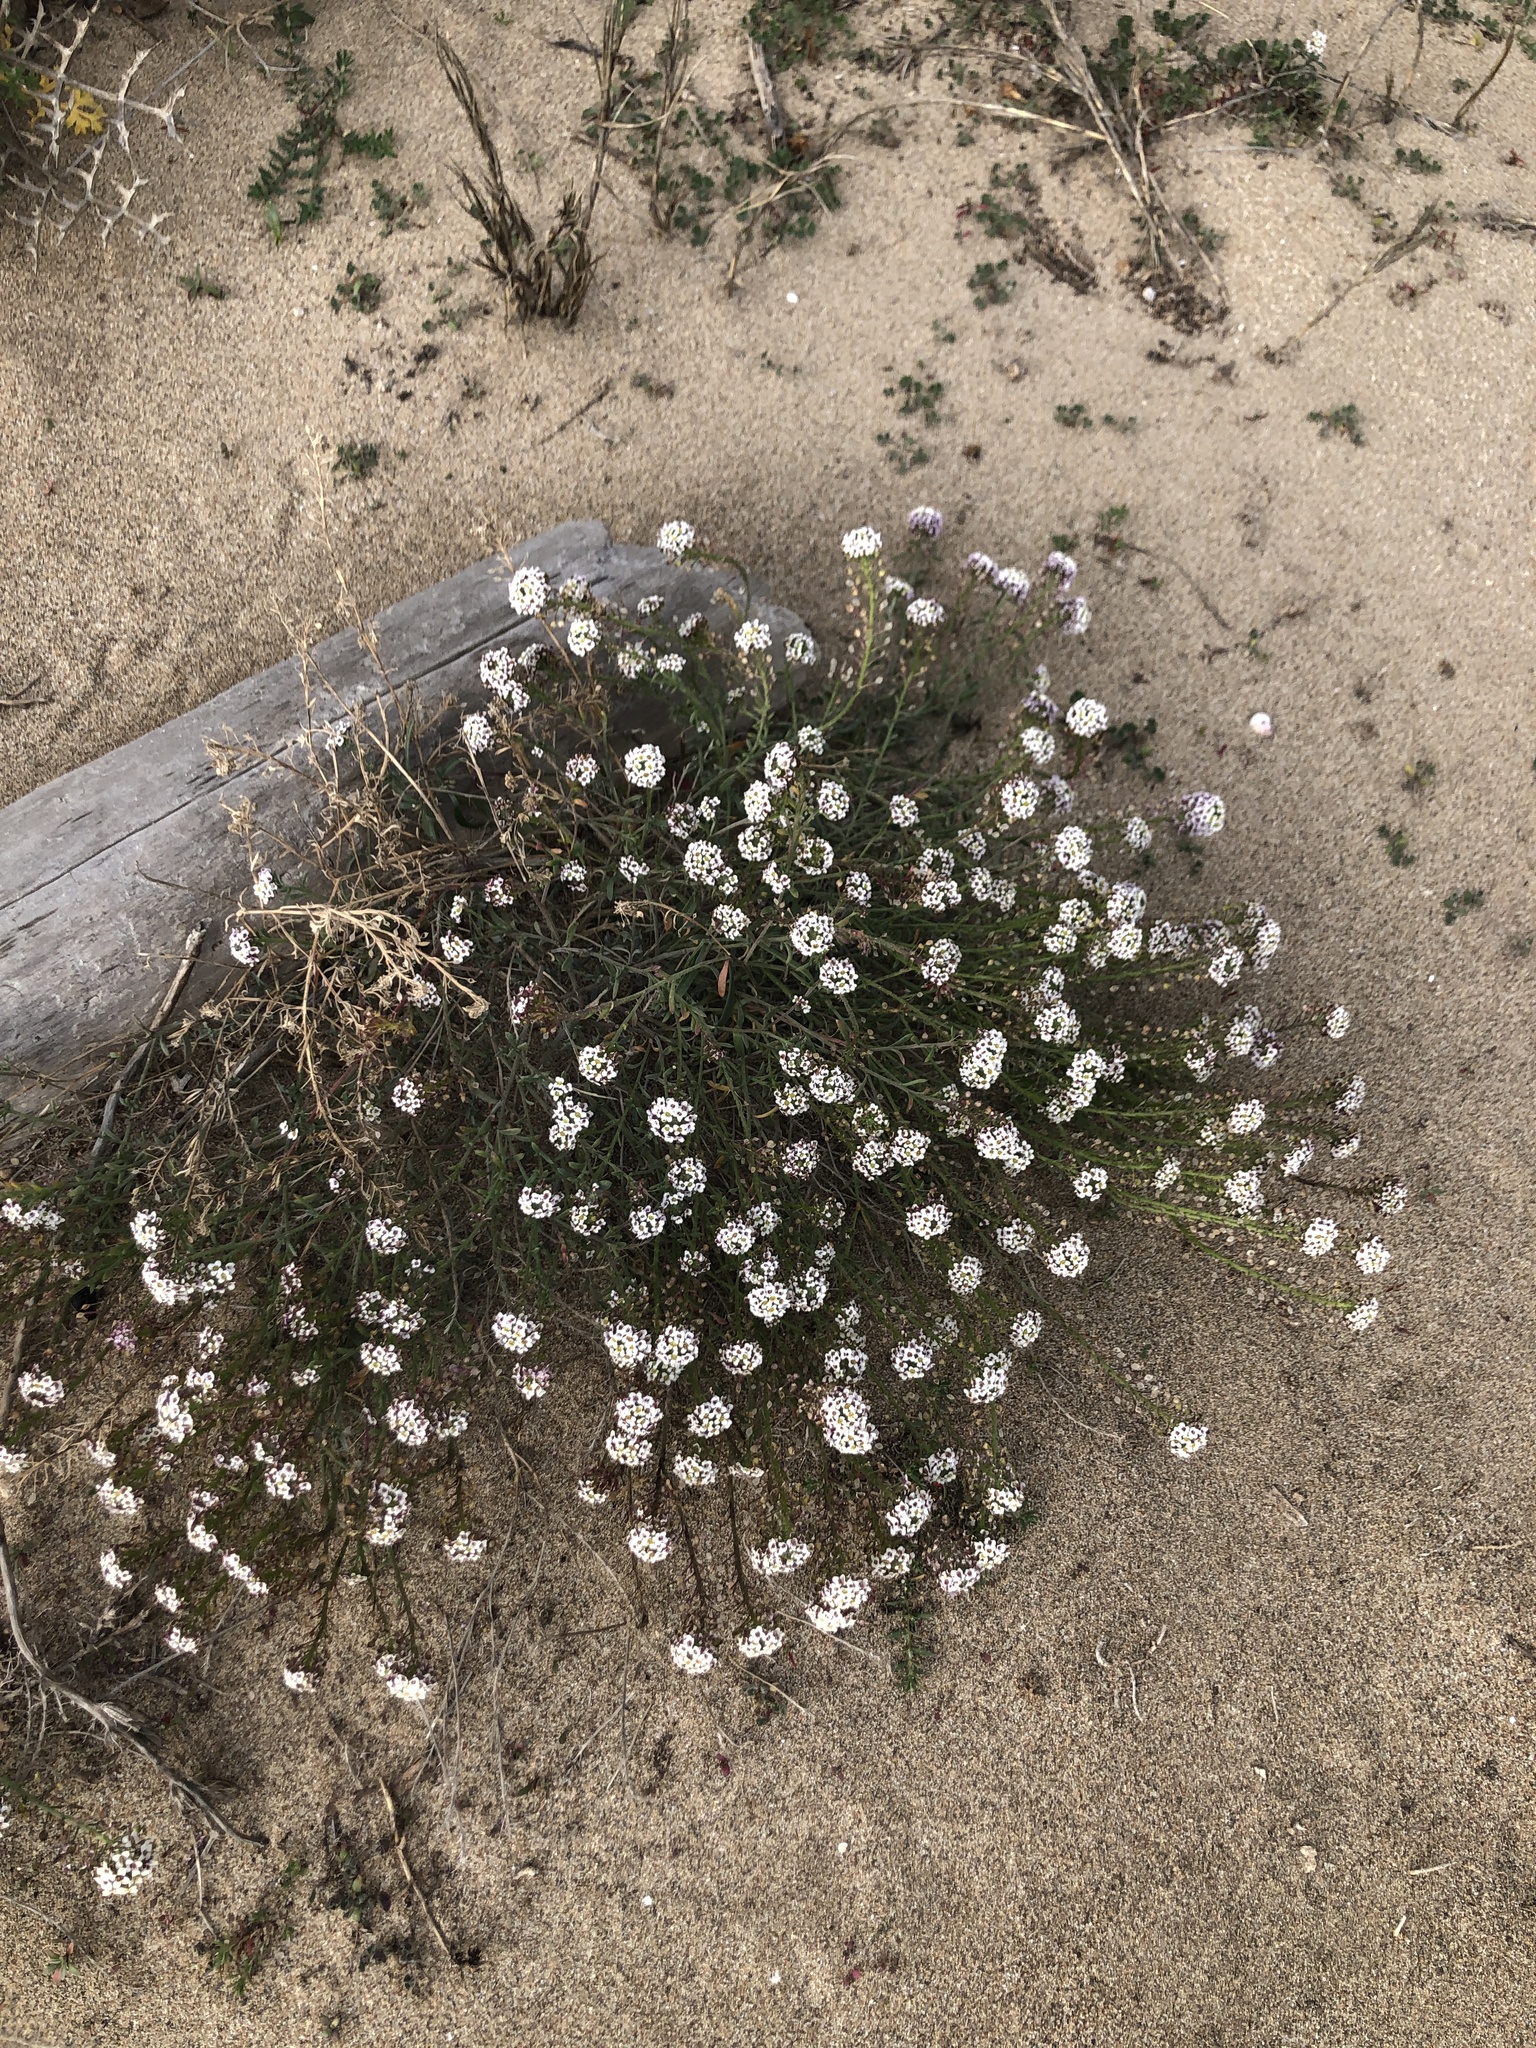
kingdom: Plantae
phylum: Tracheophyta
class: Magnoliopsida
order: Brassicales
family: Brassicaceae
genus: Lobularia
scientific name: Lobularia maritima
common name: Sweet alison
